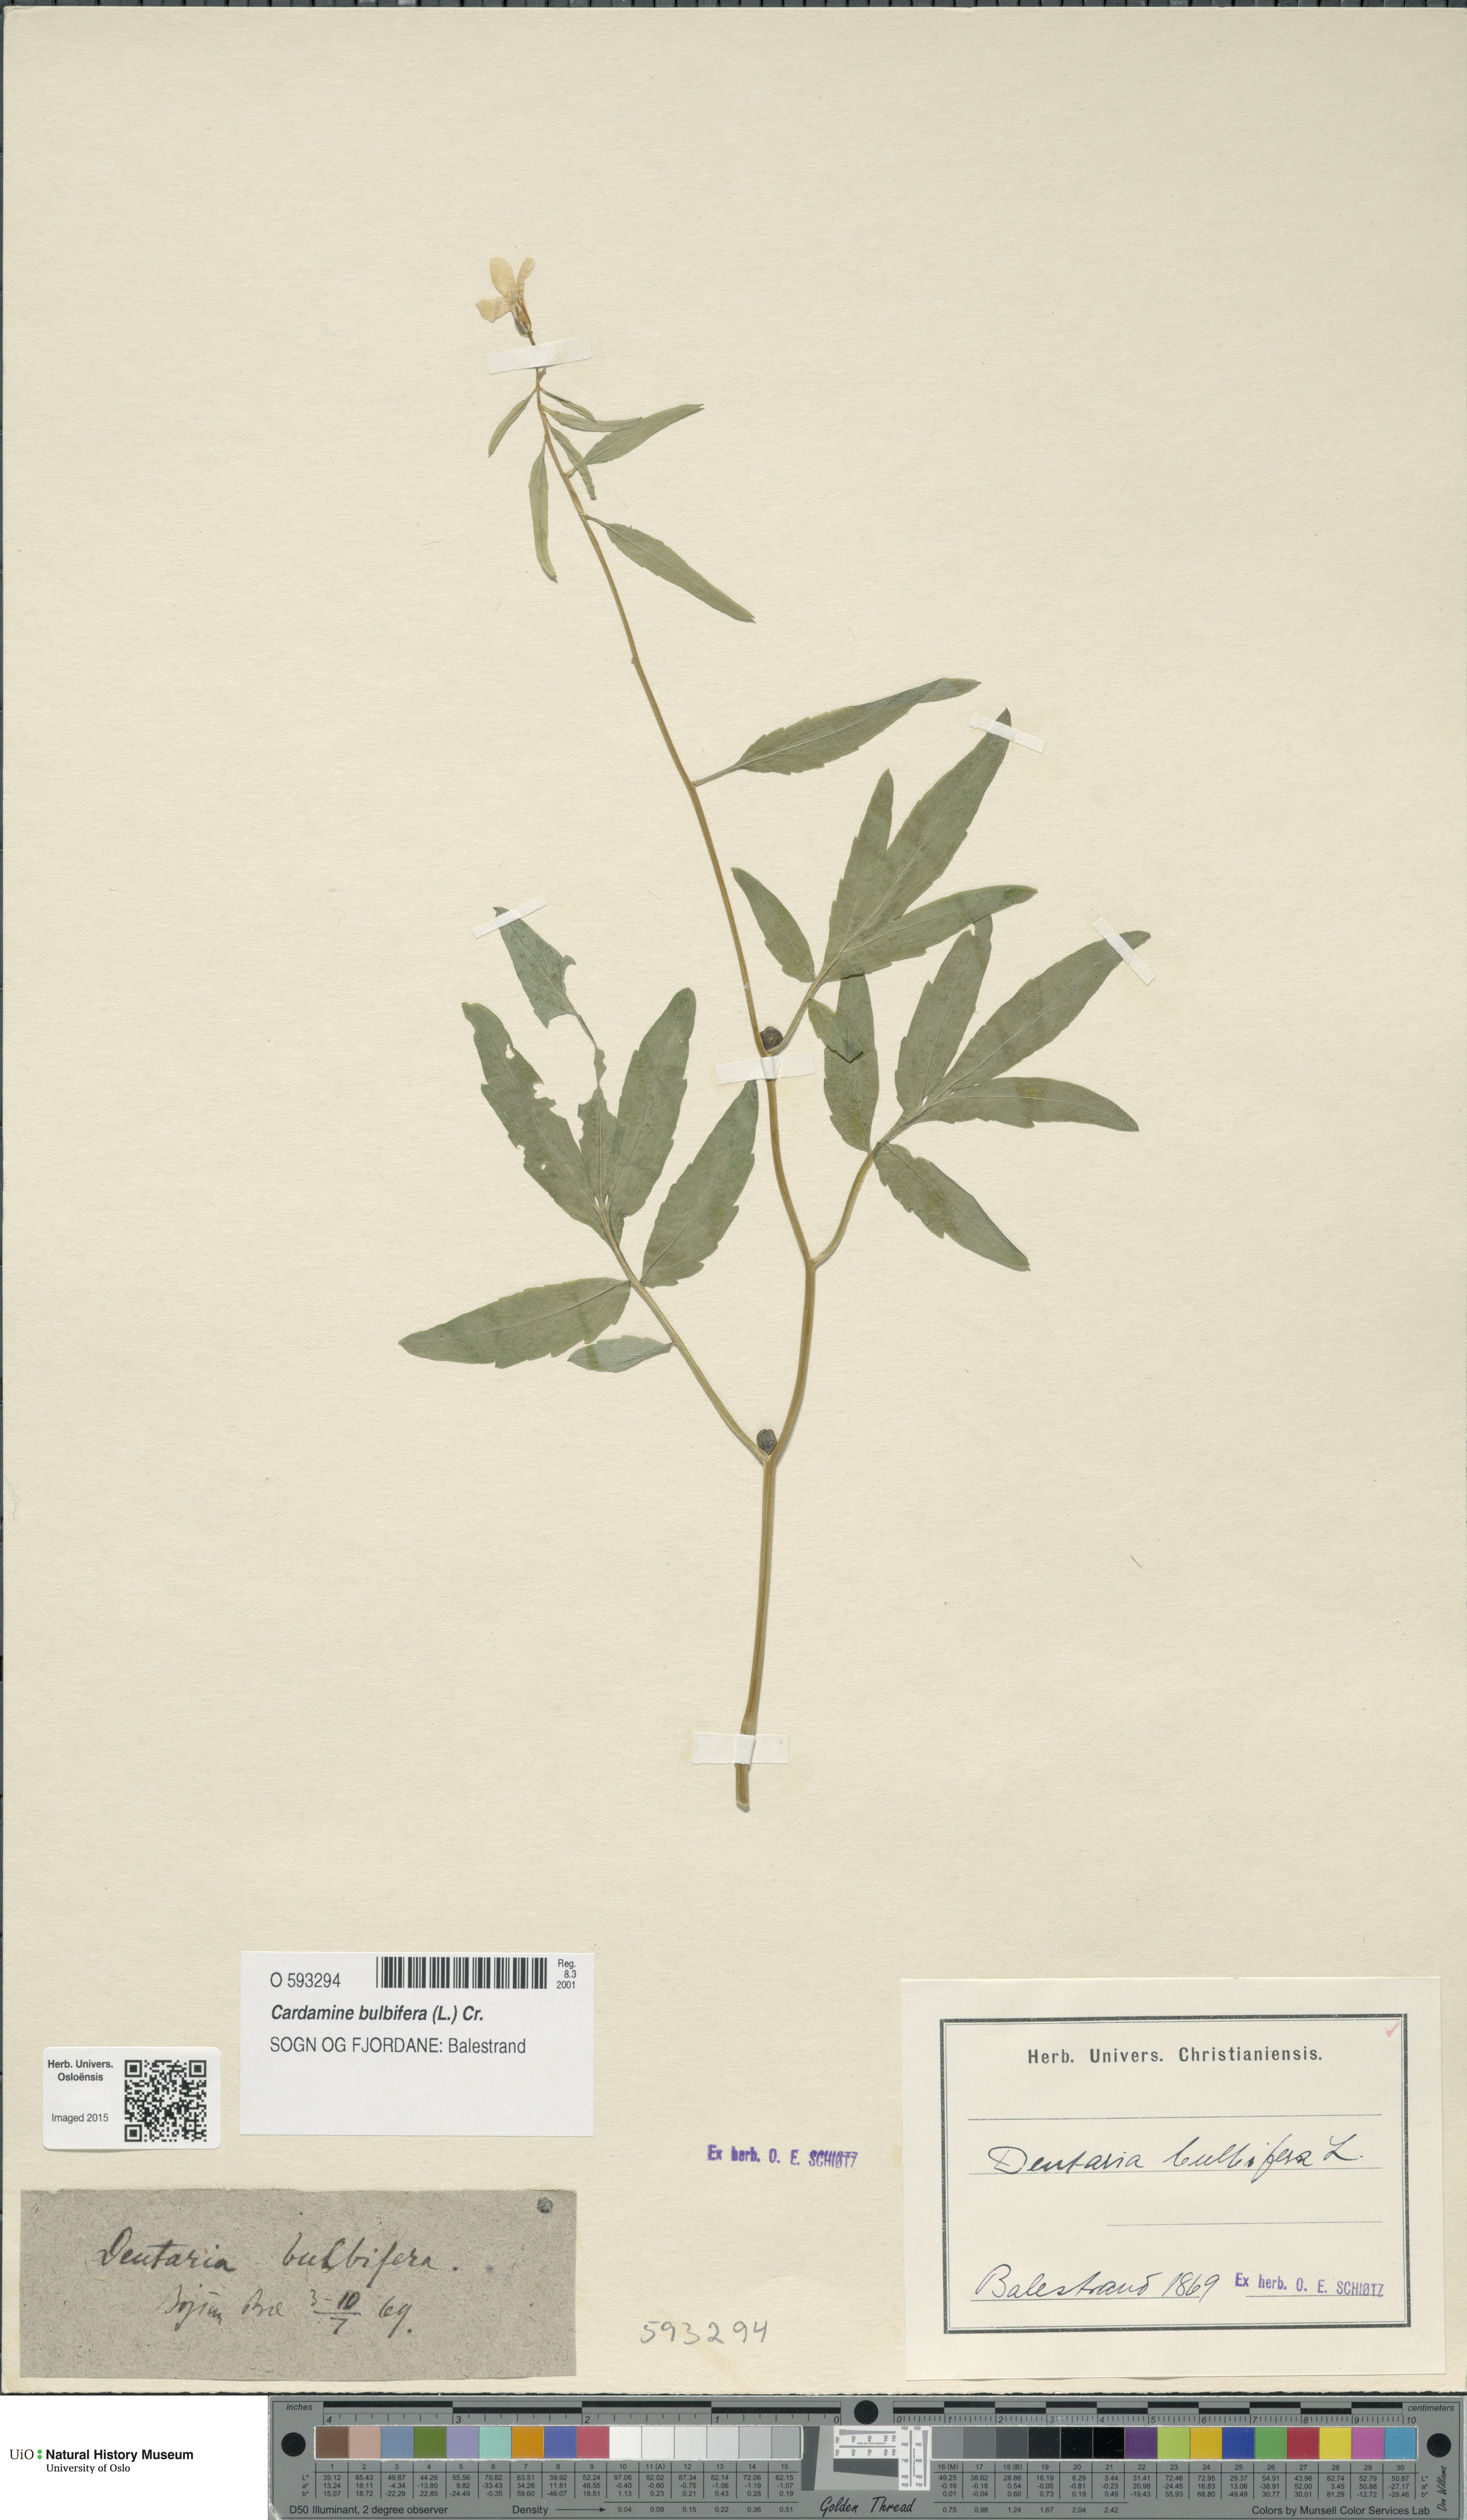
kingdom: Plantae
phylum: Tracheophyta
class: Magnoliopsida
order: Brassicales
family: Brassicaceae
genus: Cardamine
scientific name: Cardamine bulbifera
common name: Coralroot bittercress
